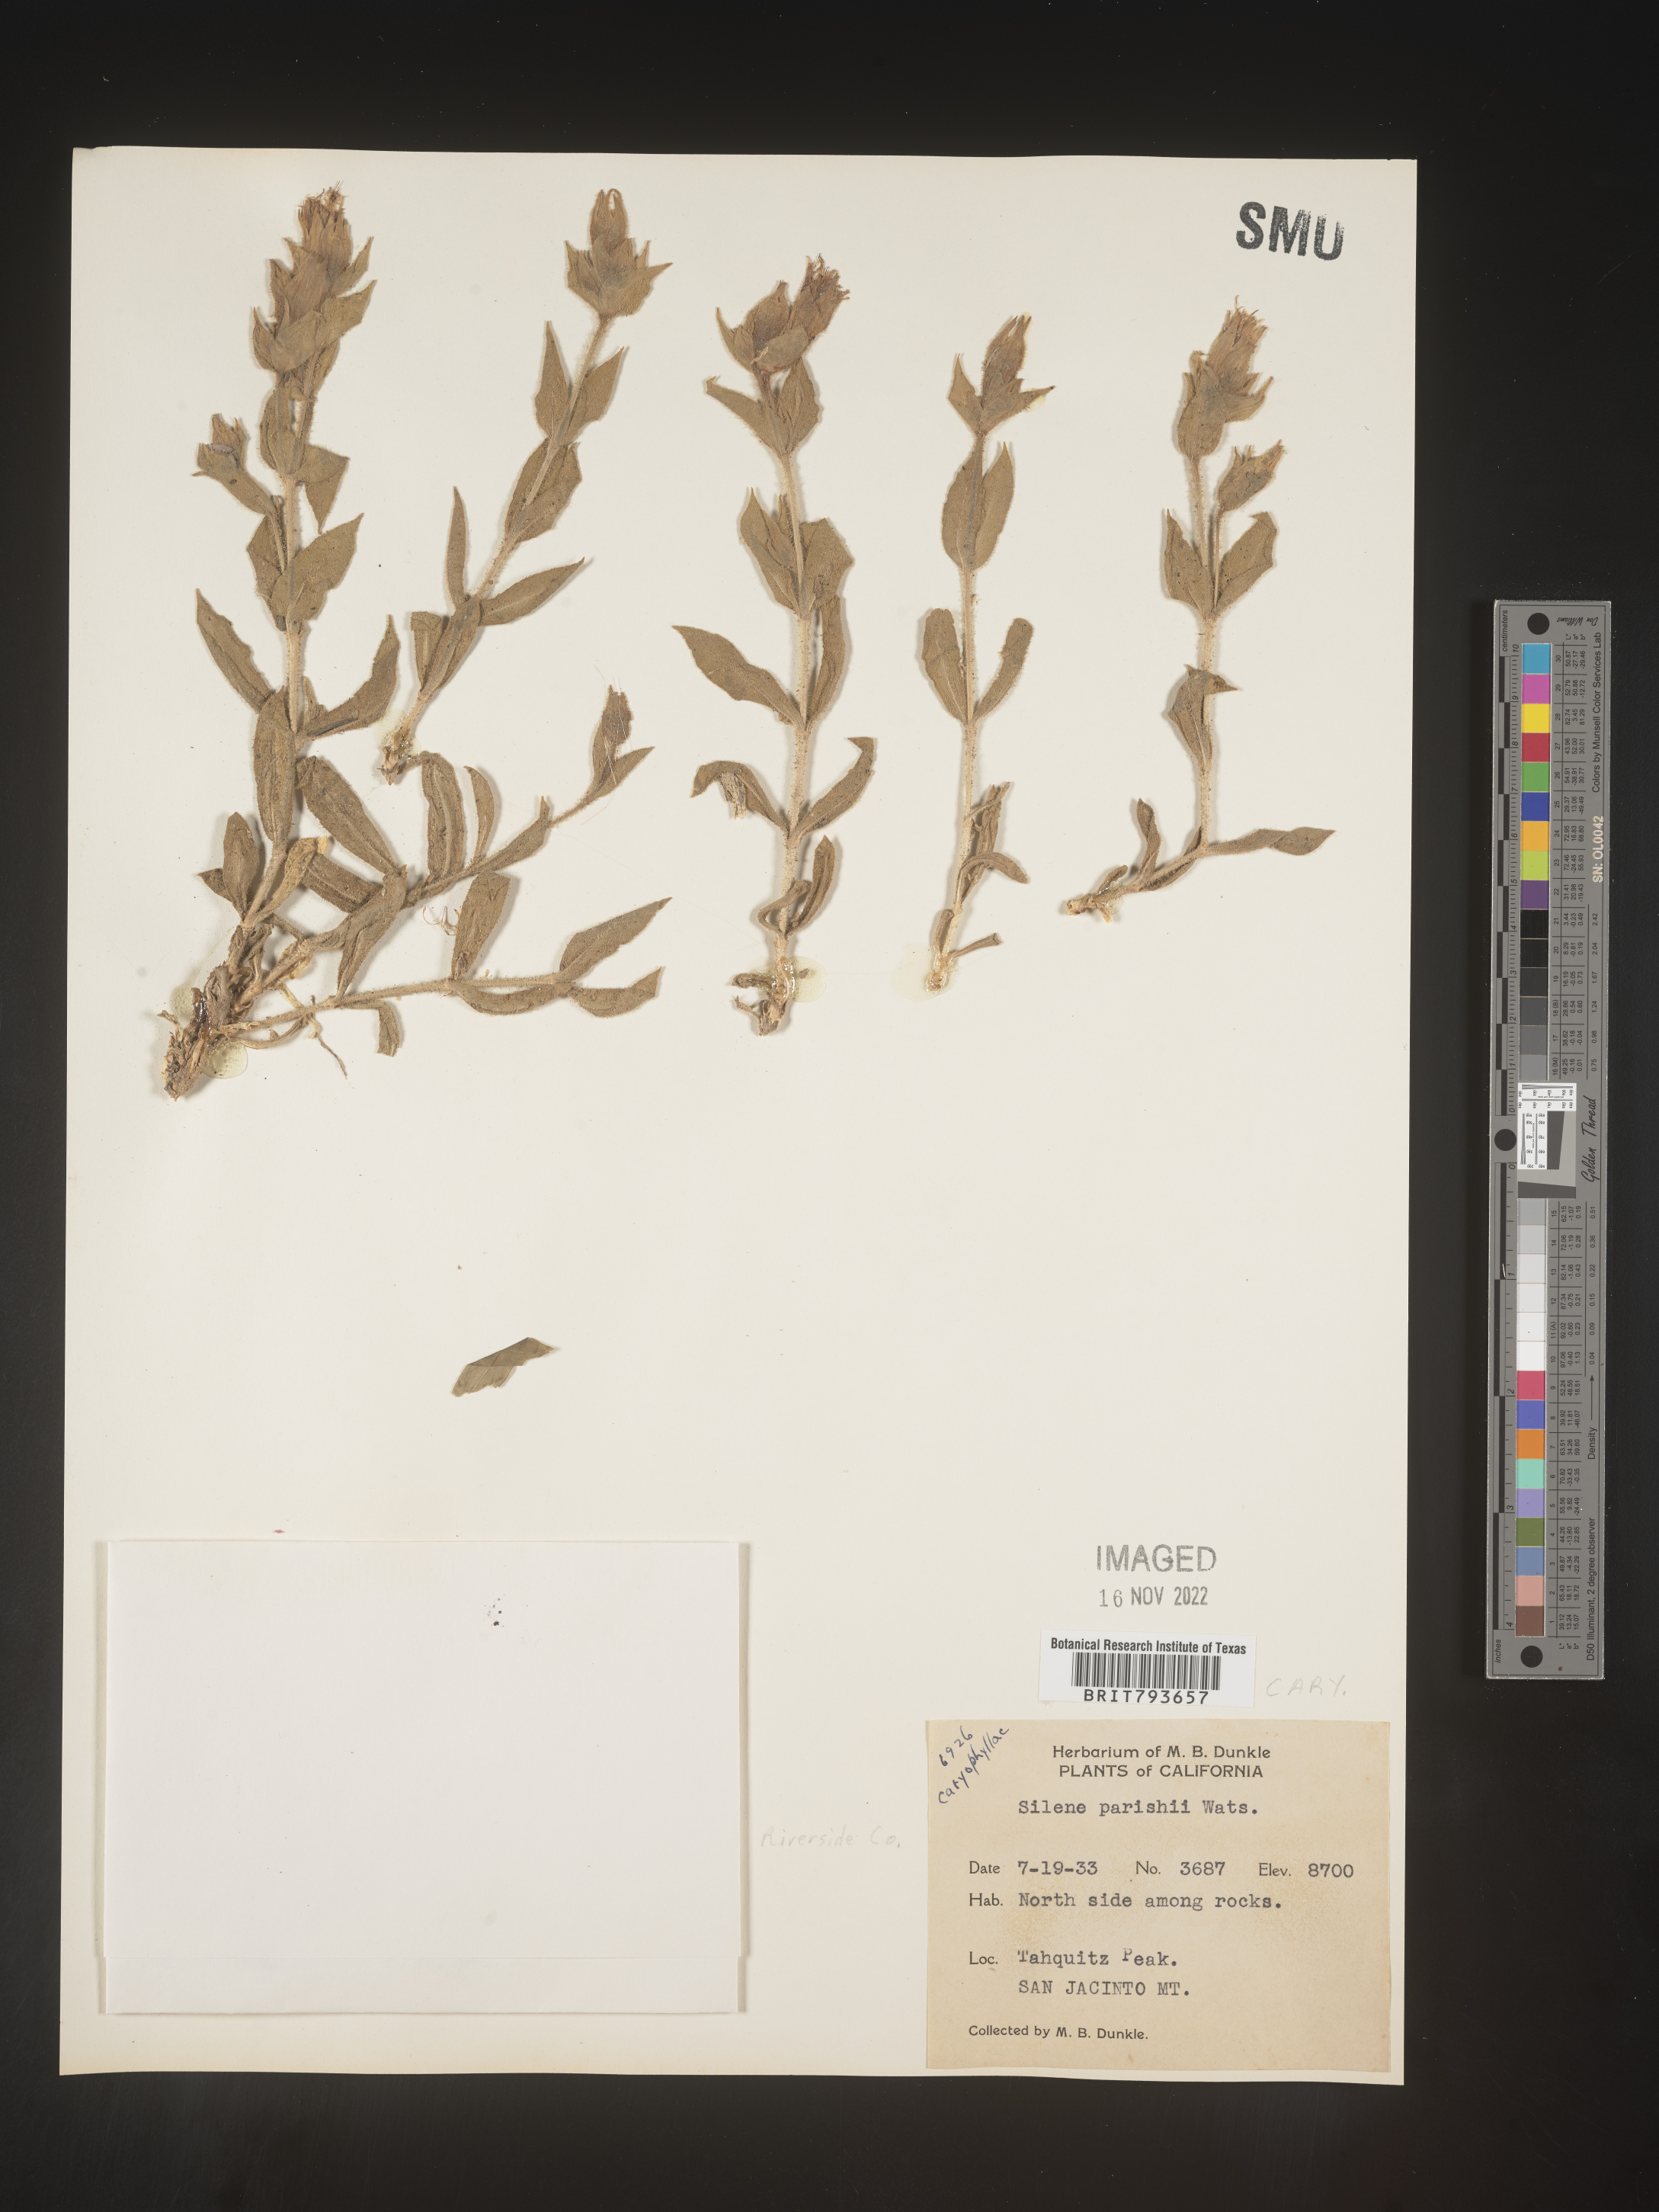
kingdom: Plantae
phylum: Tracheophyta
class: Magnoliopsida
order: Caryophyllales
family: Caryophyllaceae
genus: Silene
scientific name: Silene parishii
